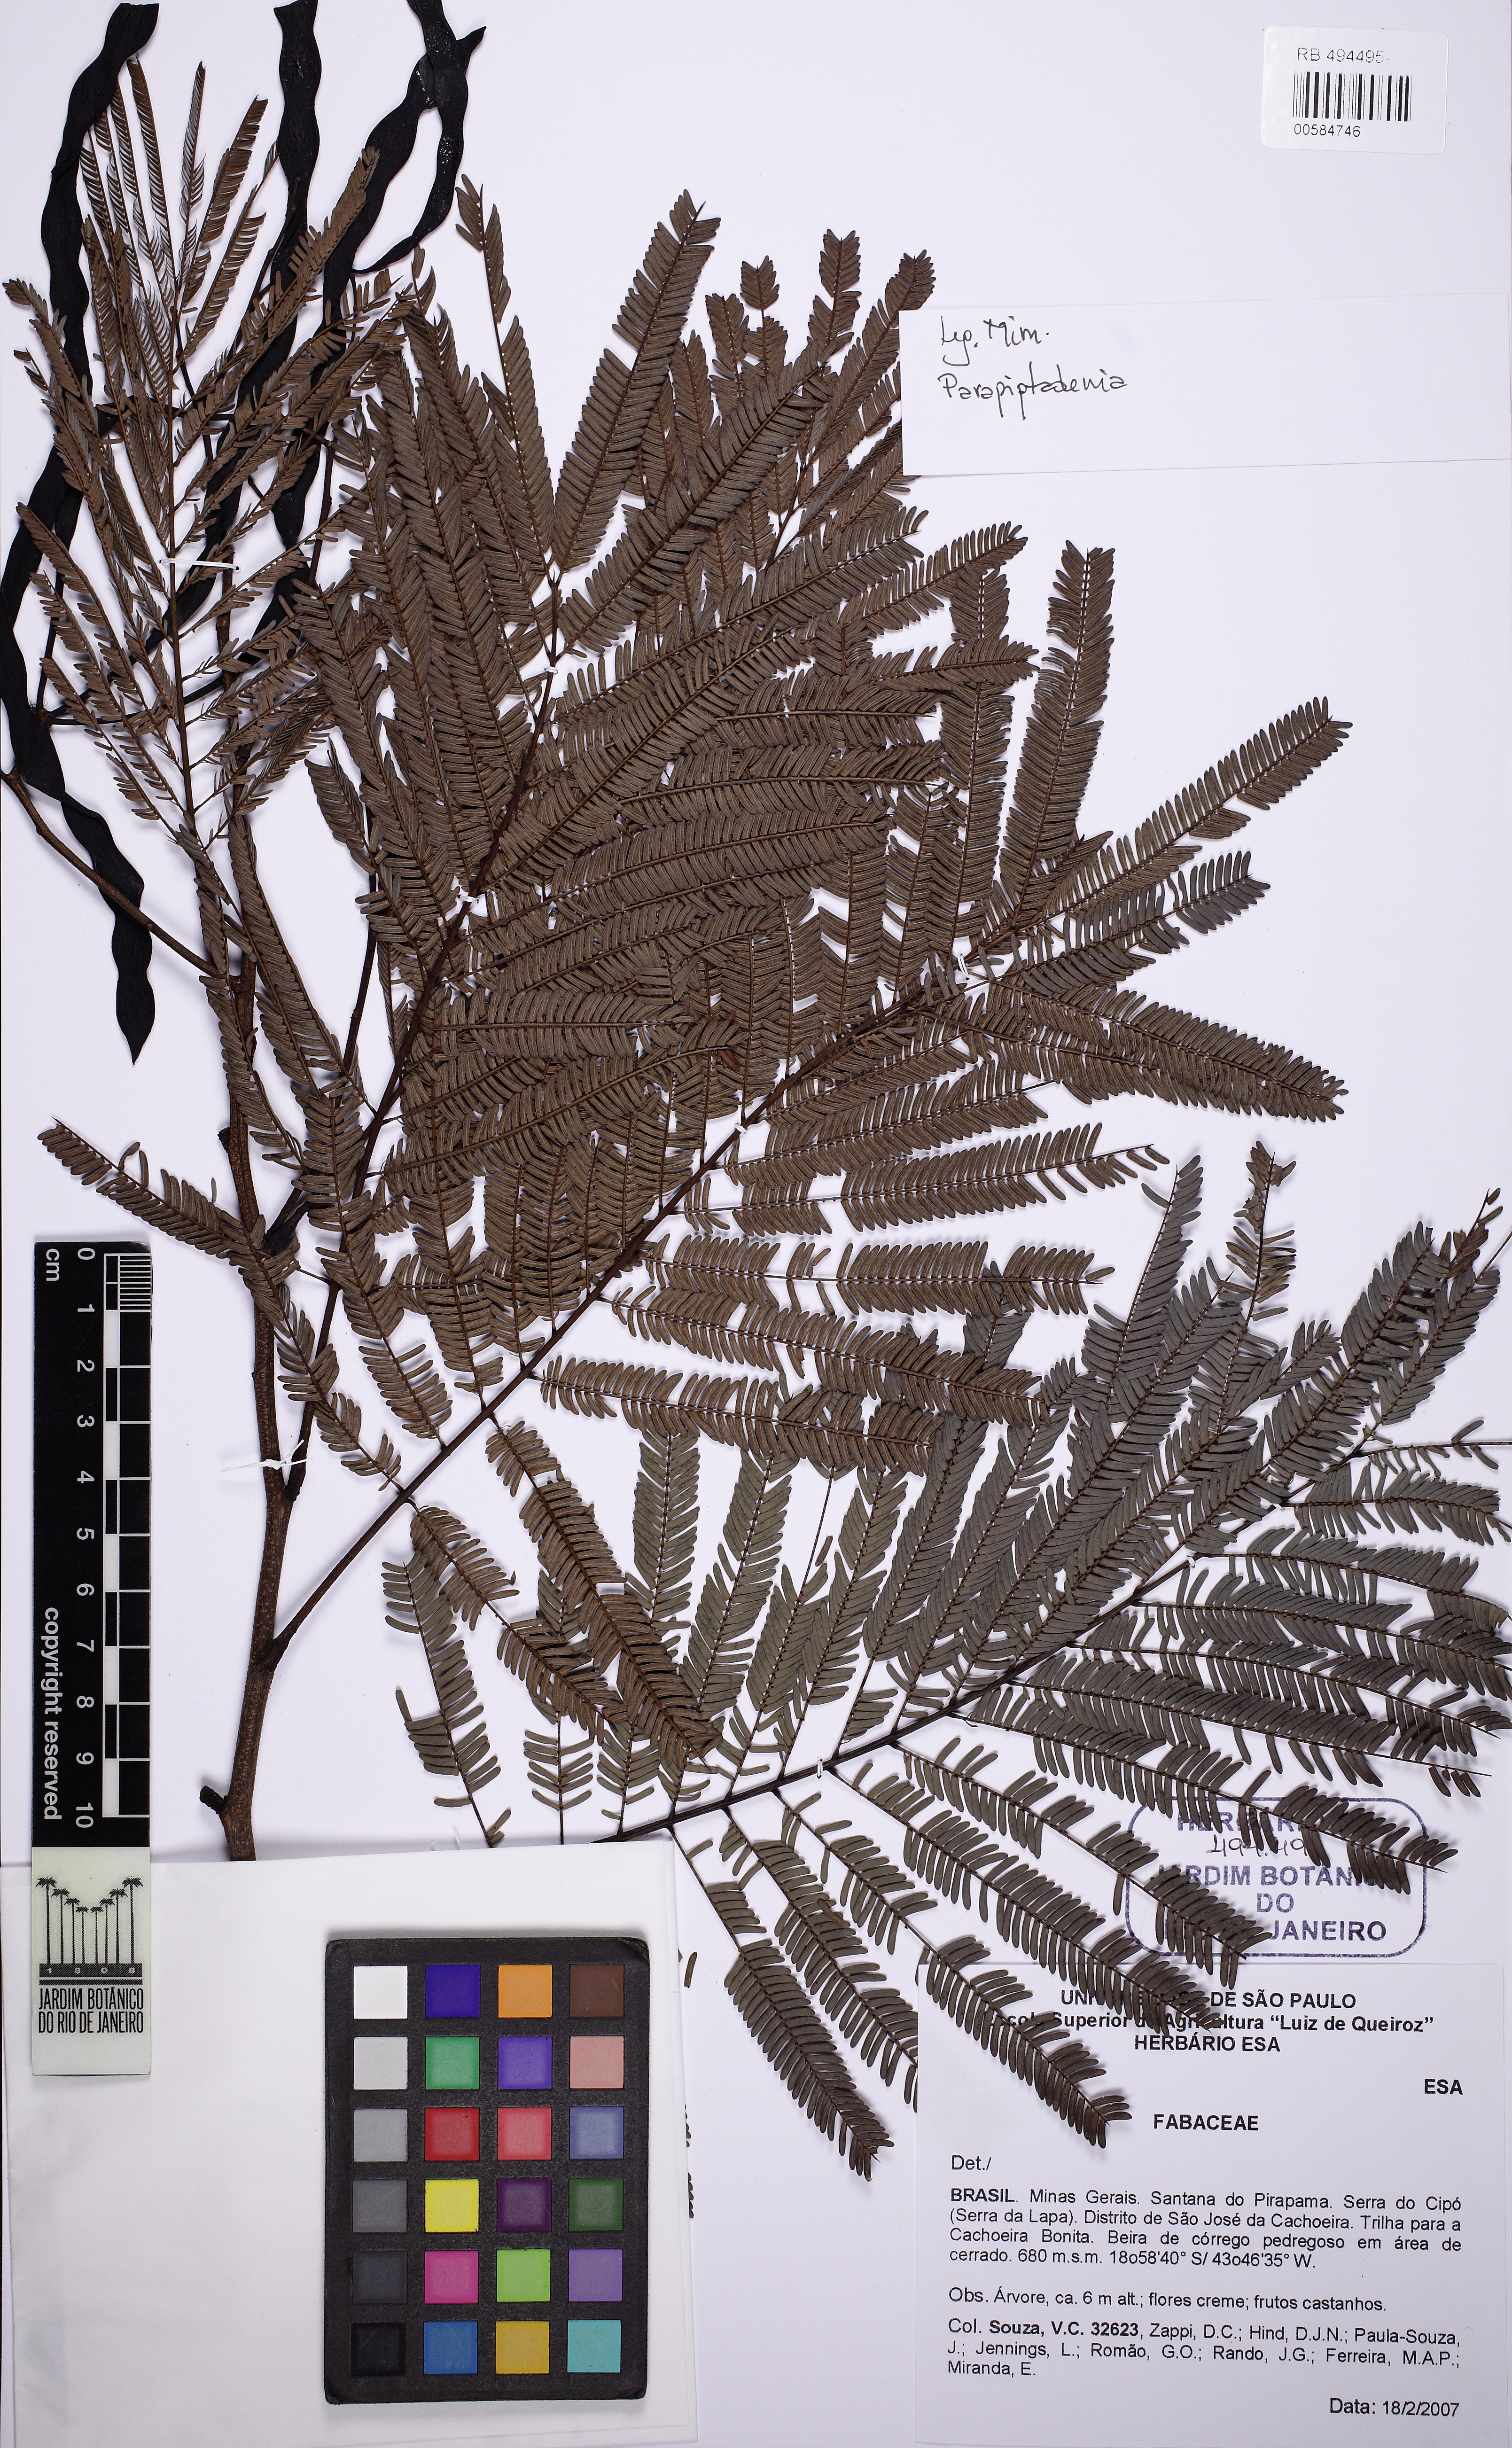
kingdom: Plantae
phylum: Tracheophyta
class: Magnoliopsida
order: Fabales
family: Fabaceae
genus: Parapiptadenia
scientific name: Parapiptadenia
